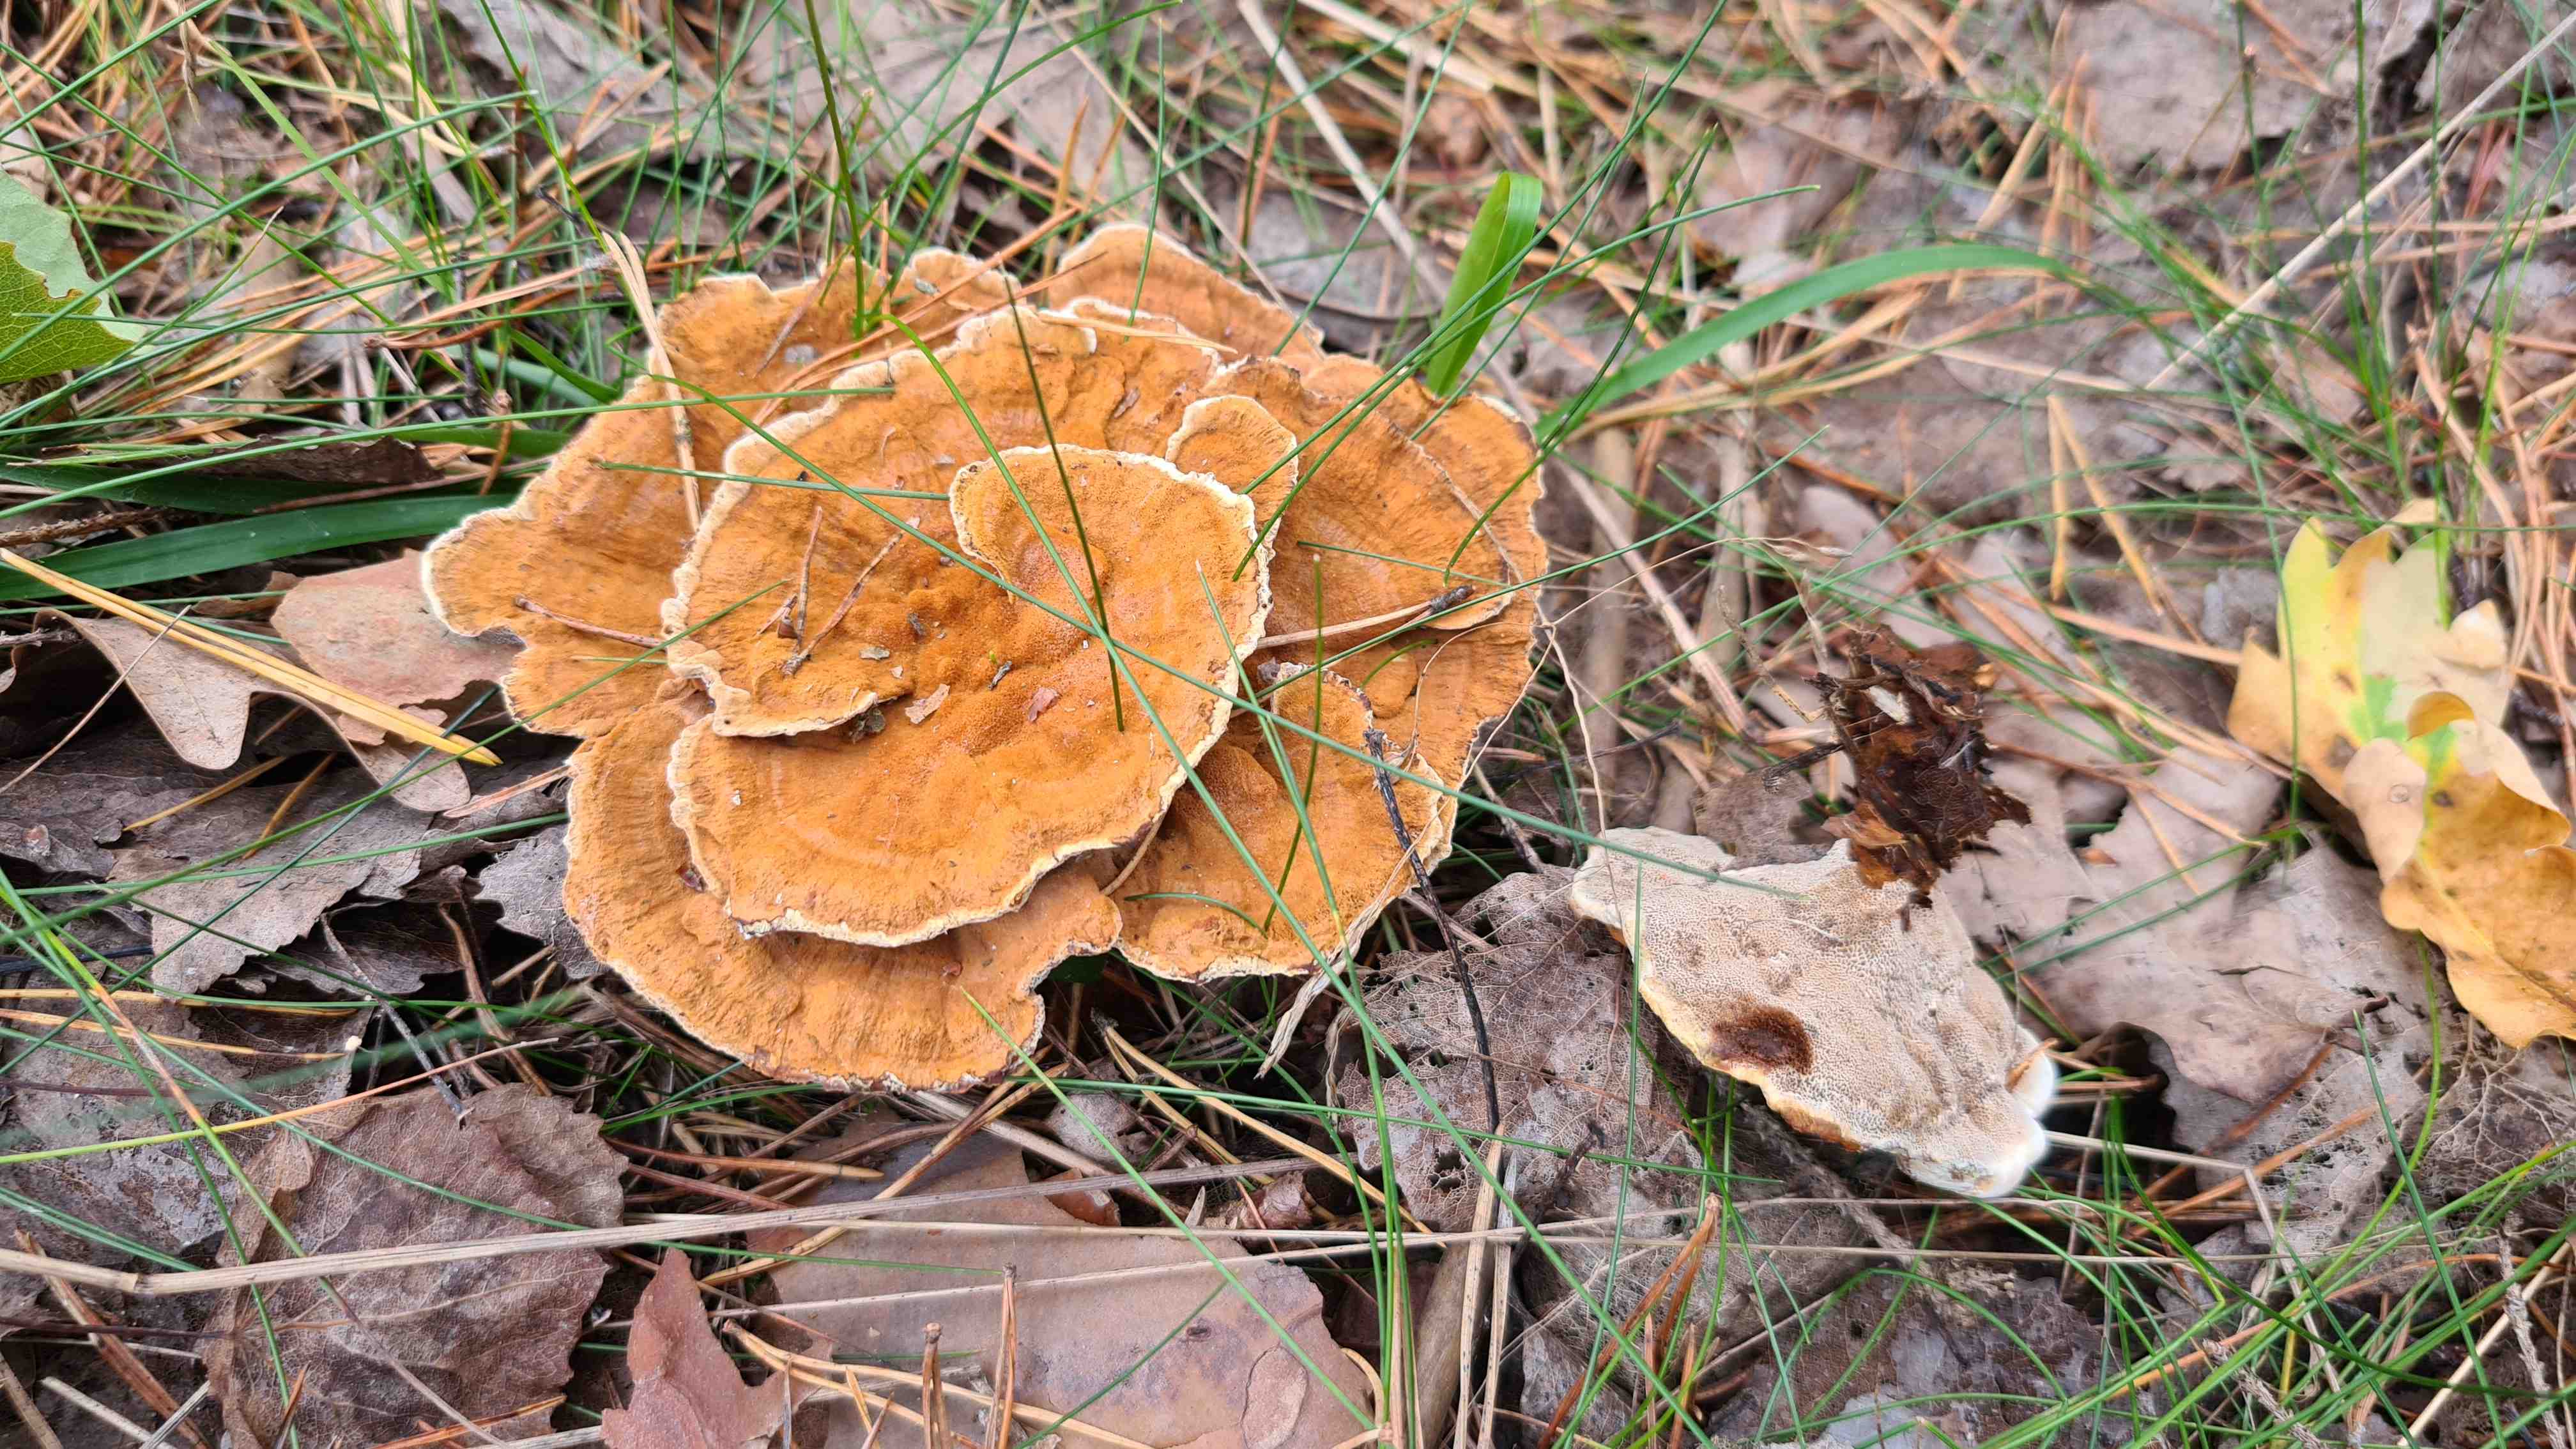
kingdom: Fungi
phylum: Basidiomycota
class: Agaricomycetes
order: Hymenochaetales
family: Hymenochaetaceae
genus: Coltricia
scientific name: Coltricia perennis
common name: almindelig sandporesvamp
